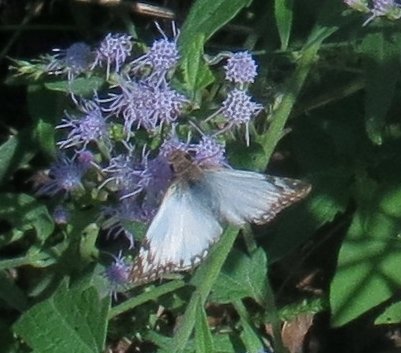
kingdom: Animalia
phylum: Arthropoda
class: Insecta
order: Lepidoptera
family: Hesperiidae
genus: Heliopetes
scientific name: Heliopetes laviana
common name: Laviana White-Skipper
